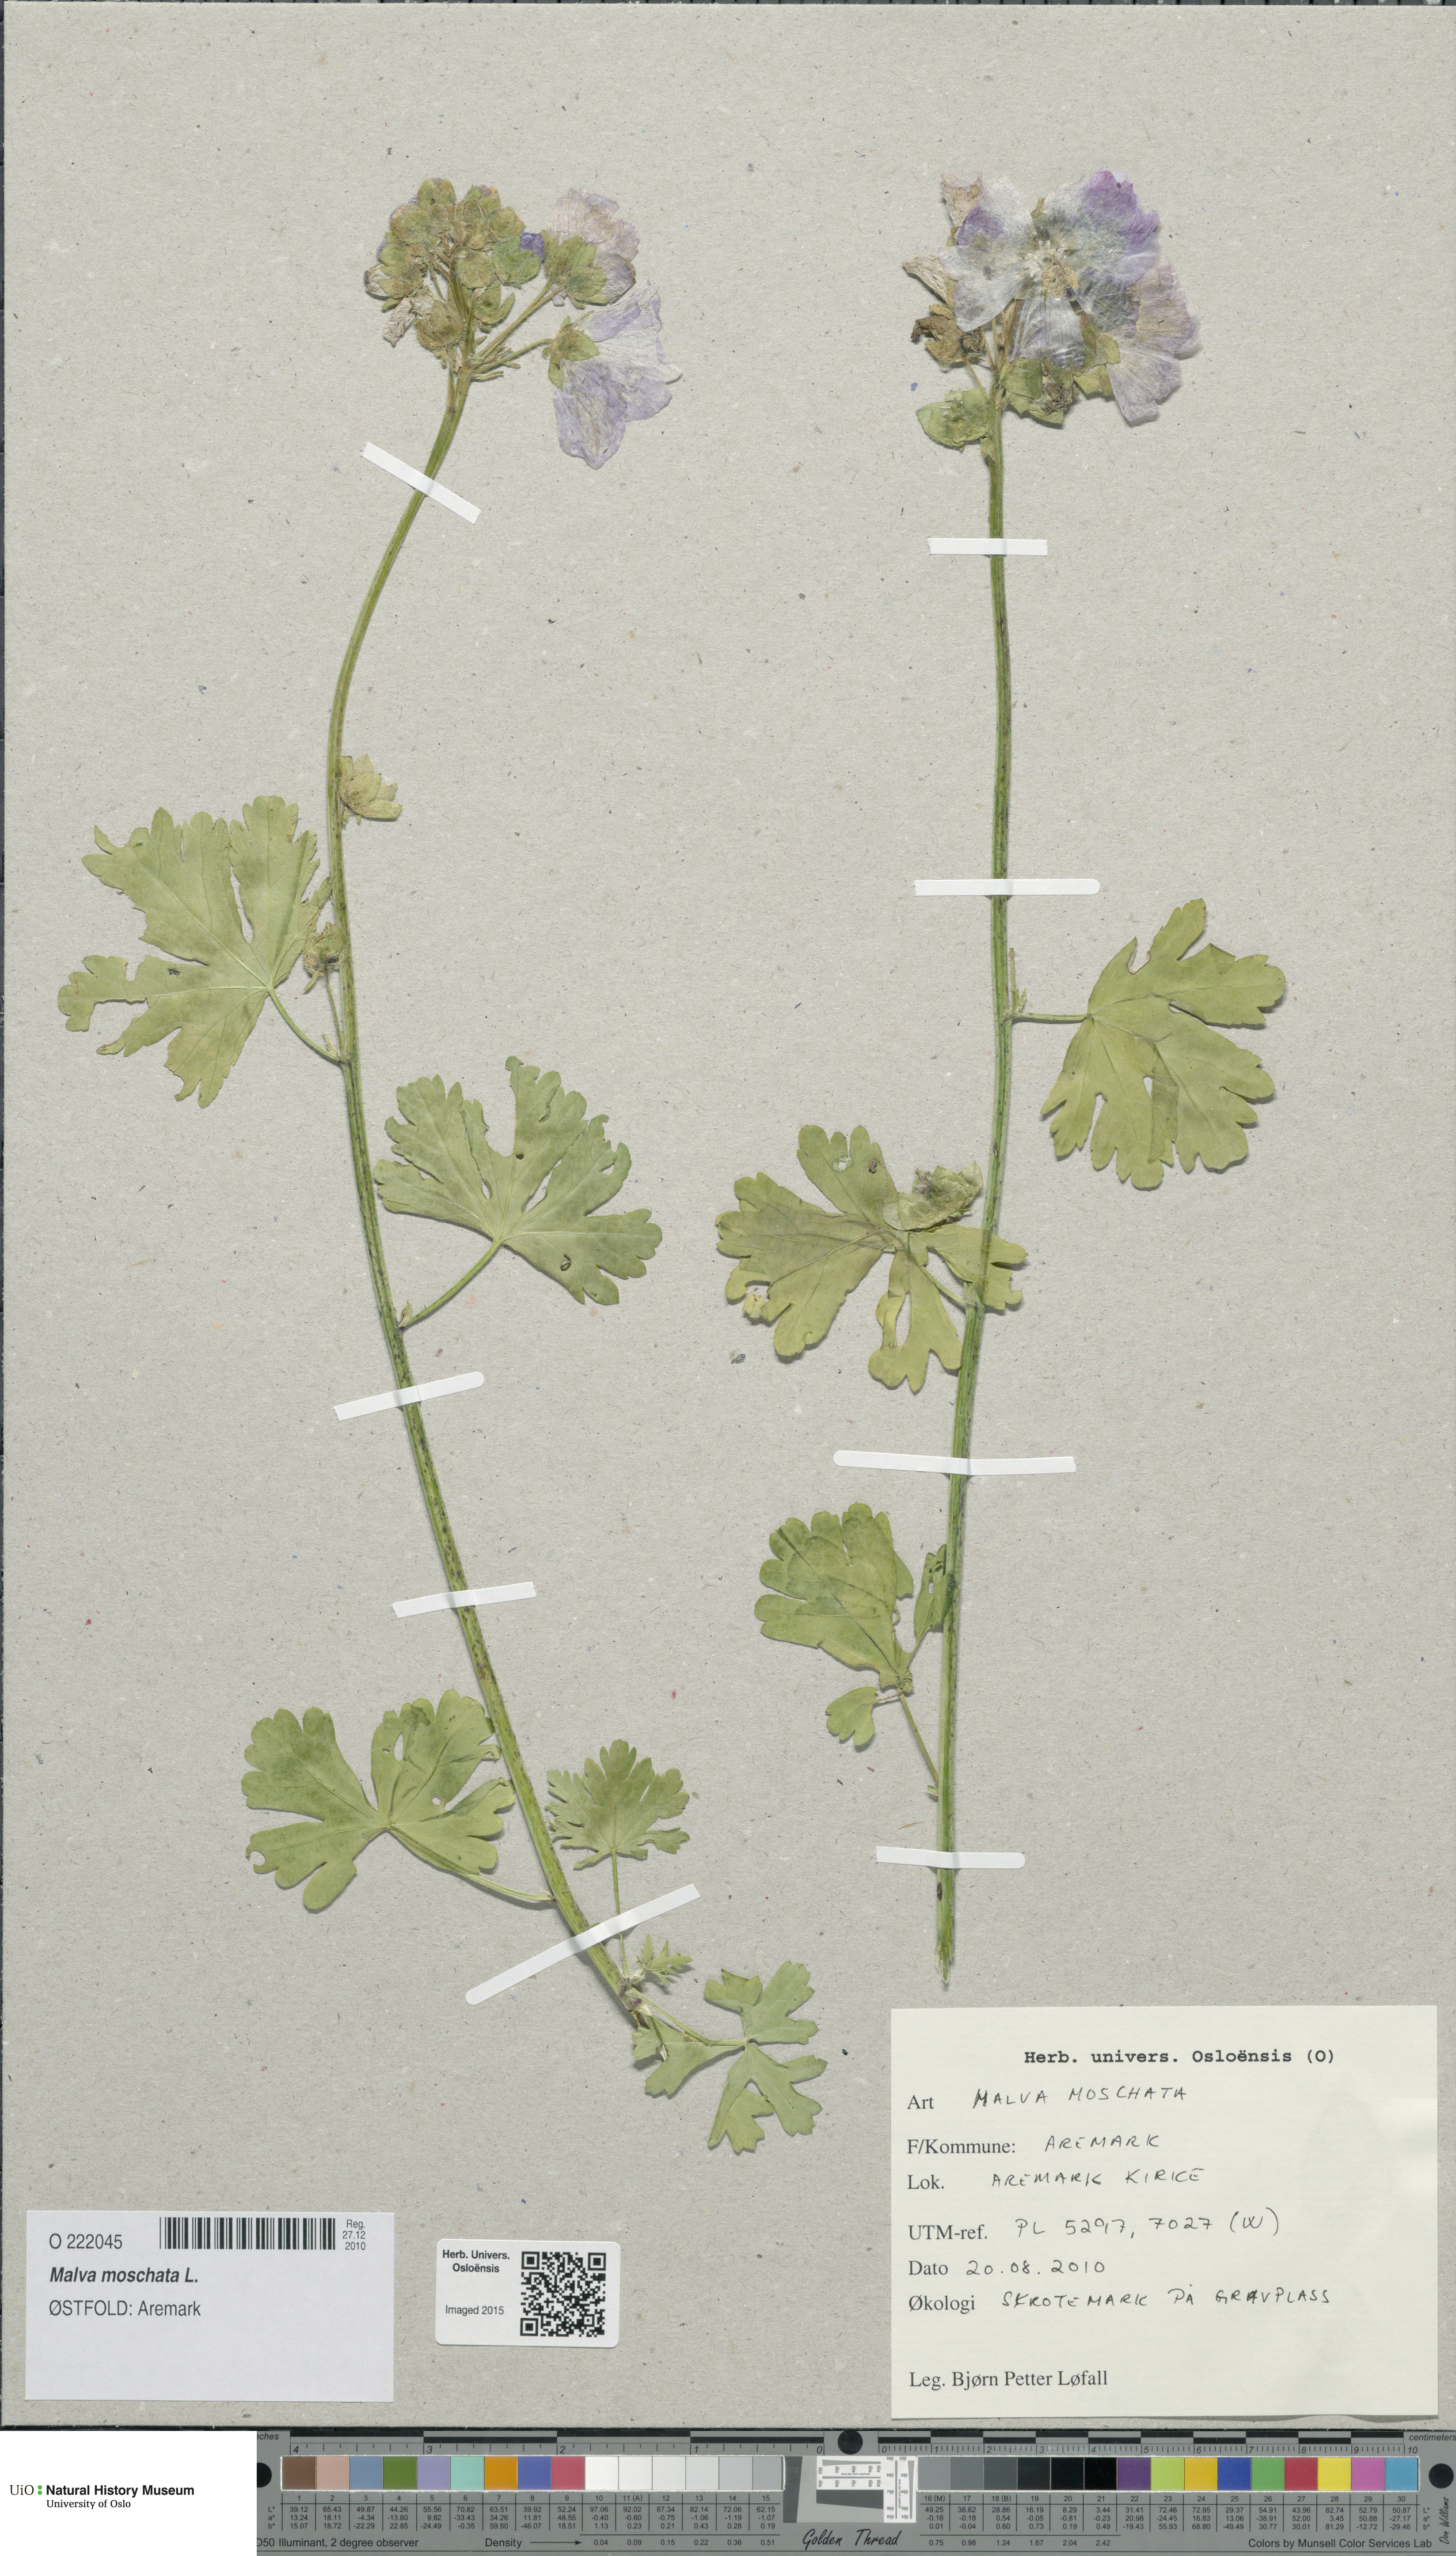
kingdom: Plantae
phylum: Tracheophyta
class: Magnoliopsida
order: Malvales
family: Malvaceae
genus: Malva
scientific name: Malva moschata
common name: Musk mallow
